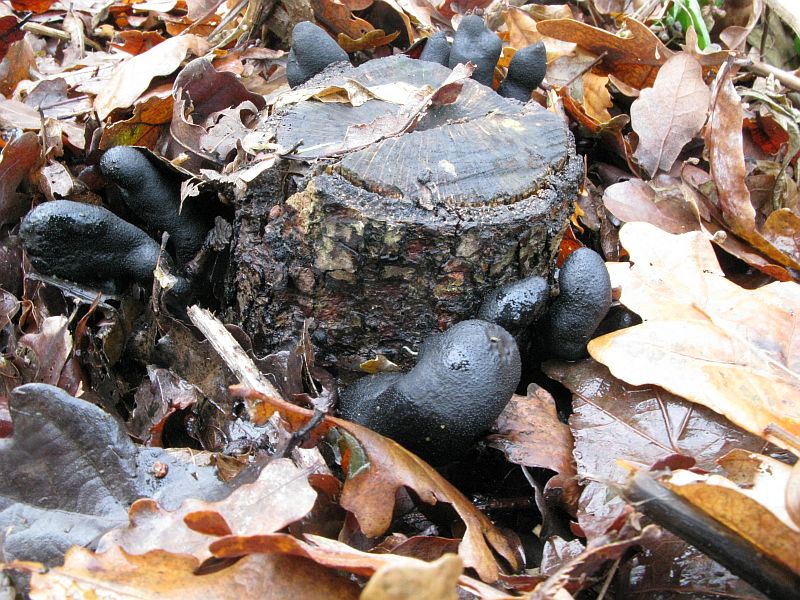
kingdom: Fungi
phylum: Ascomycota
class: Sordariomycetes
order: Xylariales
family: Xylariaceae
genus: Xylaria
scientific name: Xylaria polymorpha
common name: kølle-stødsvamp
